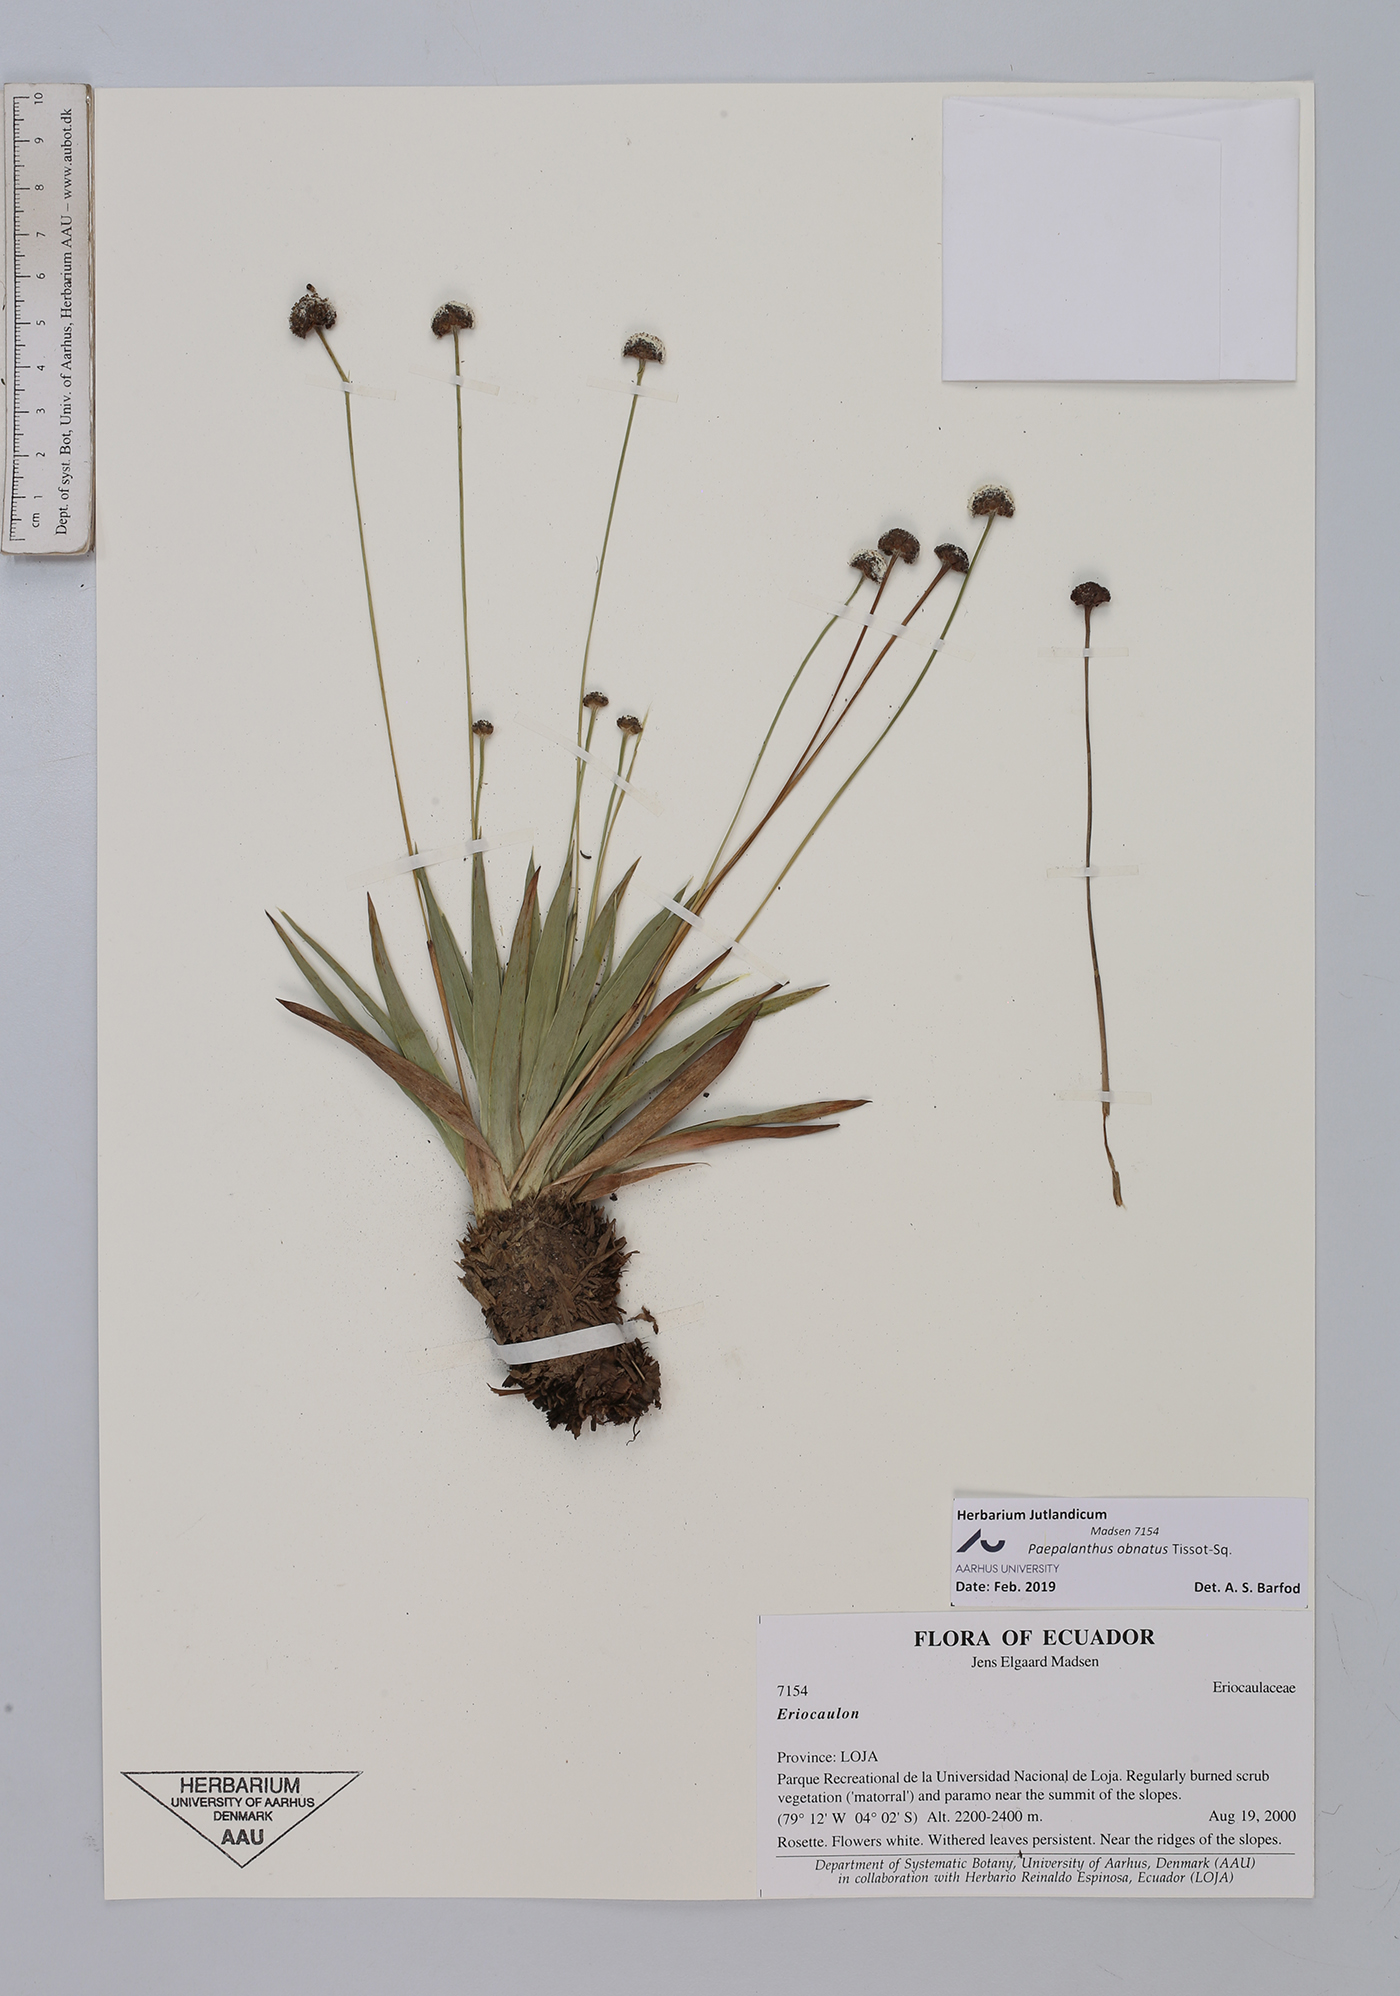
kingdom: Plantae
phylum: Tracheophyta
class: Liliopsida
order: Poales
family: Eriocaulaceae
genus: Paepalanthus
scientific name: Paepalanthus obnatus
